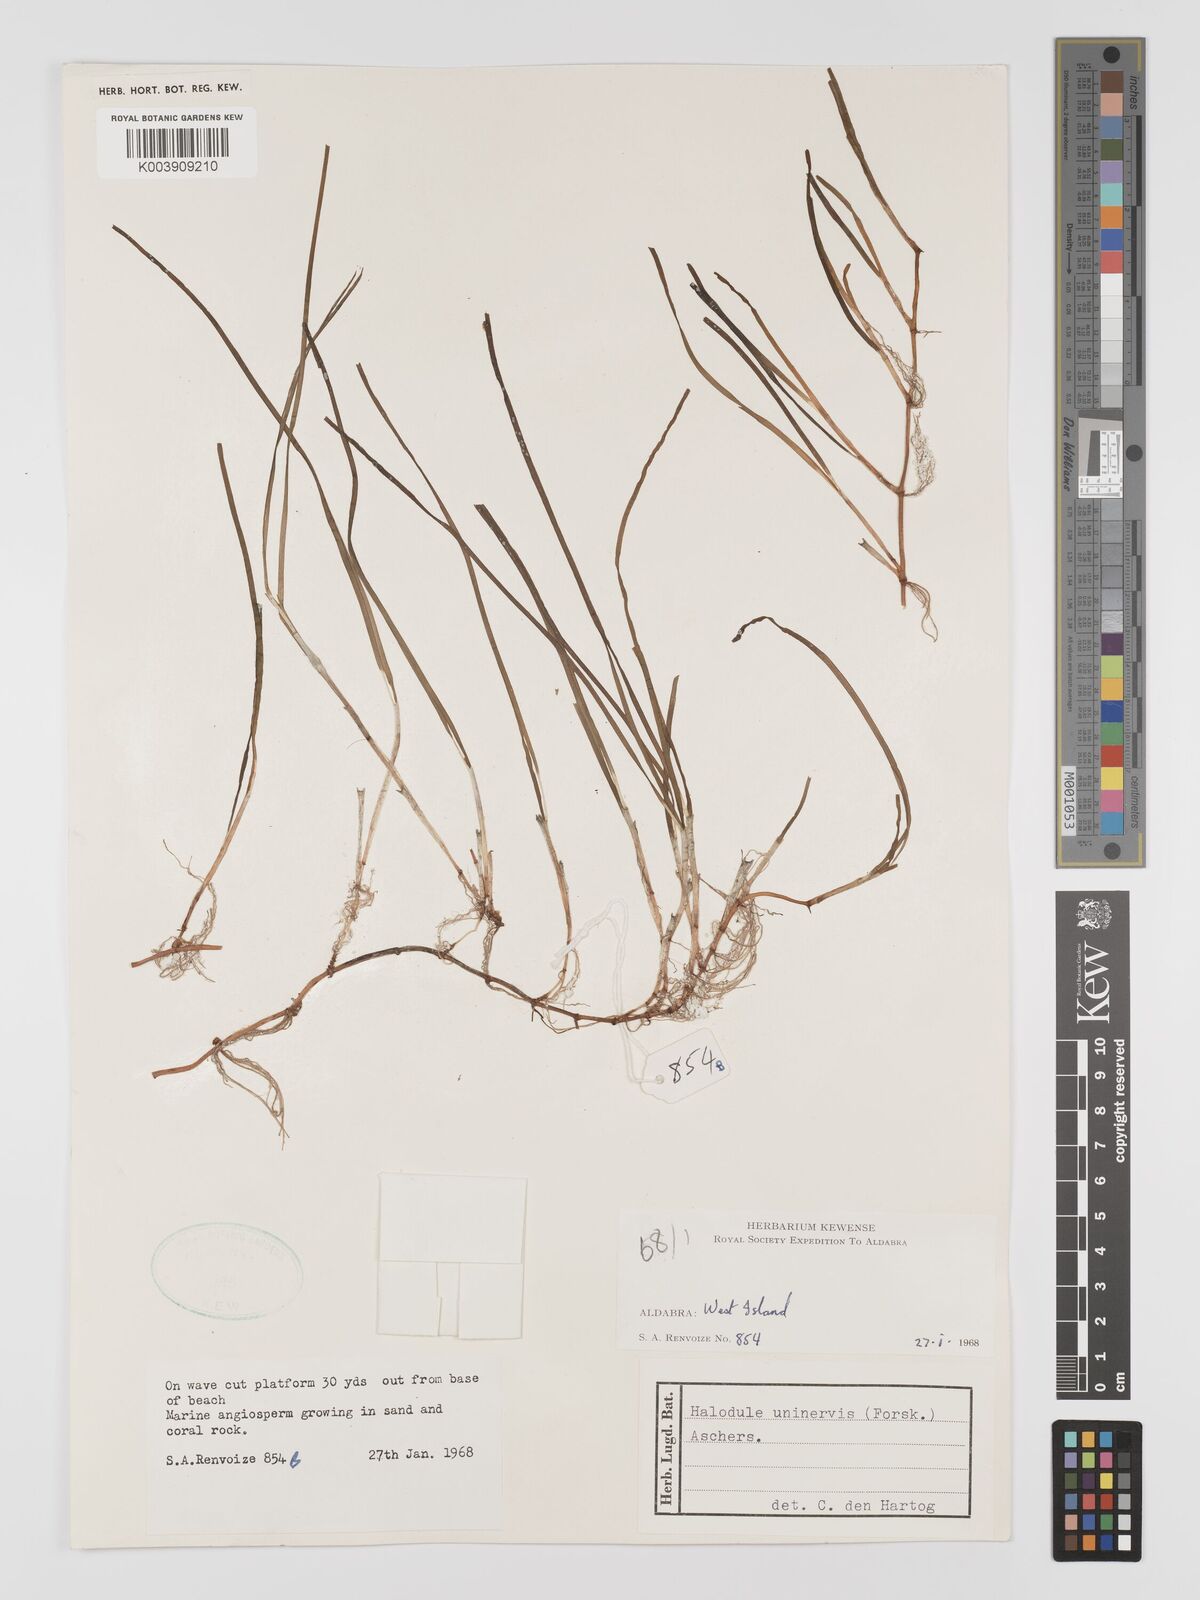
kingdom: Plantae
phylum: Tracheophyta
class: Liliopsida
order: Alismatales
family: Cymodoceaceae
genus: Halodule
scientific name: Halodule uninervis
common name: Narrowleaf seagrass
